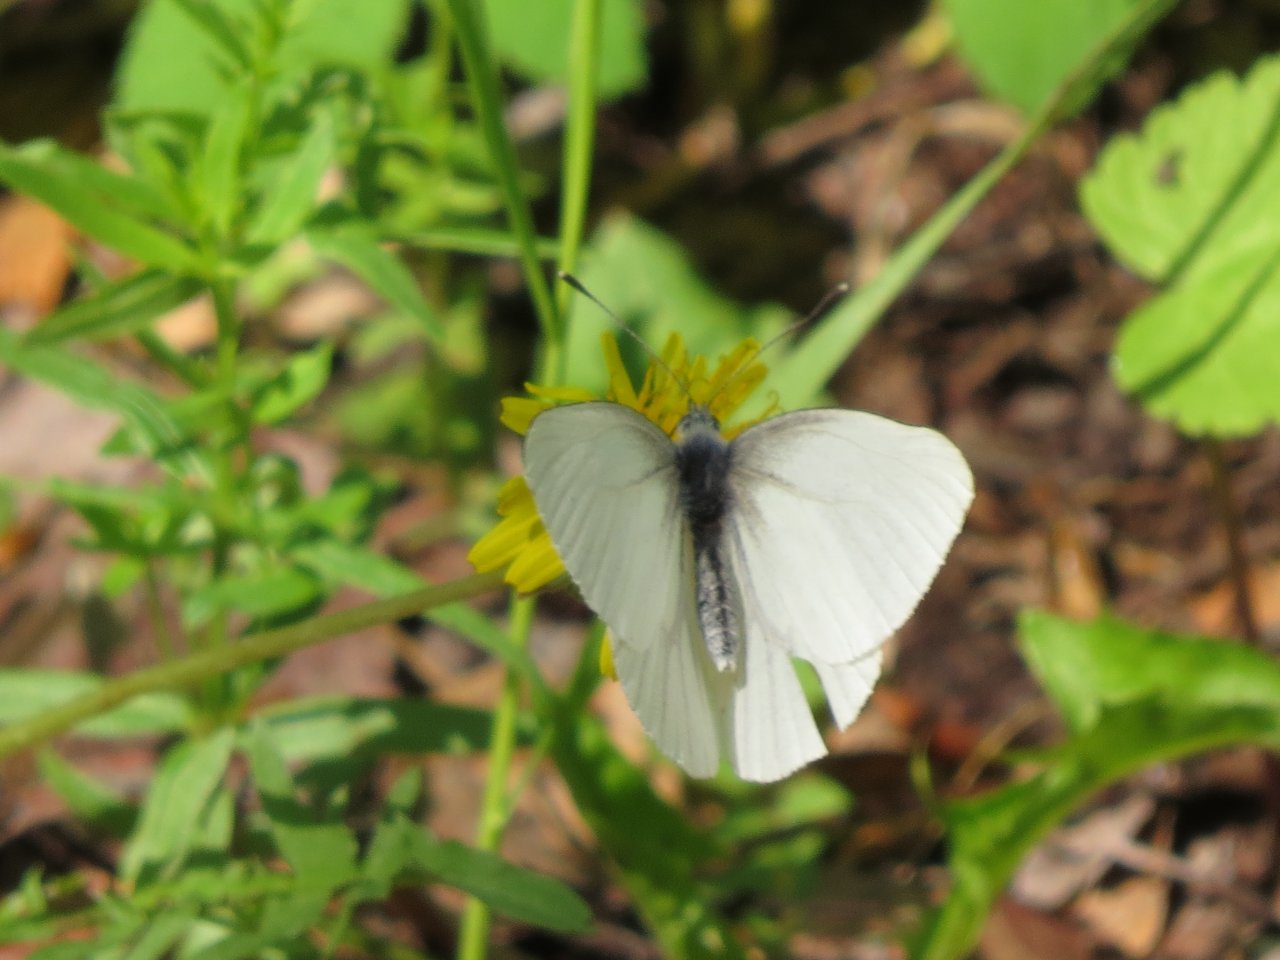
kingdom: Animalia
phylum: Arthropoda
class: Insecta
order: Lepidoptera
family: Pieridae
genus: Pieris
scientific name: Pieris oleracea
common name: Mustard White
